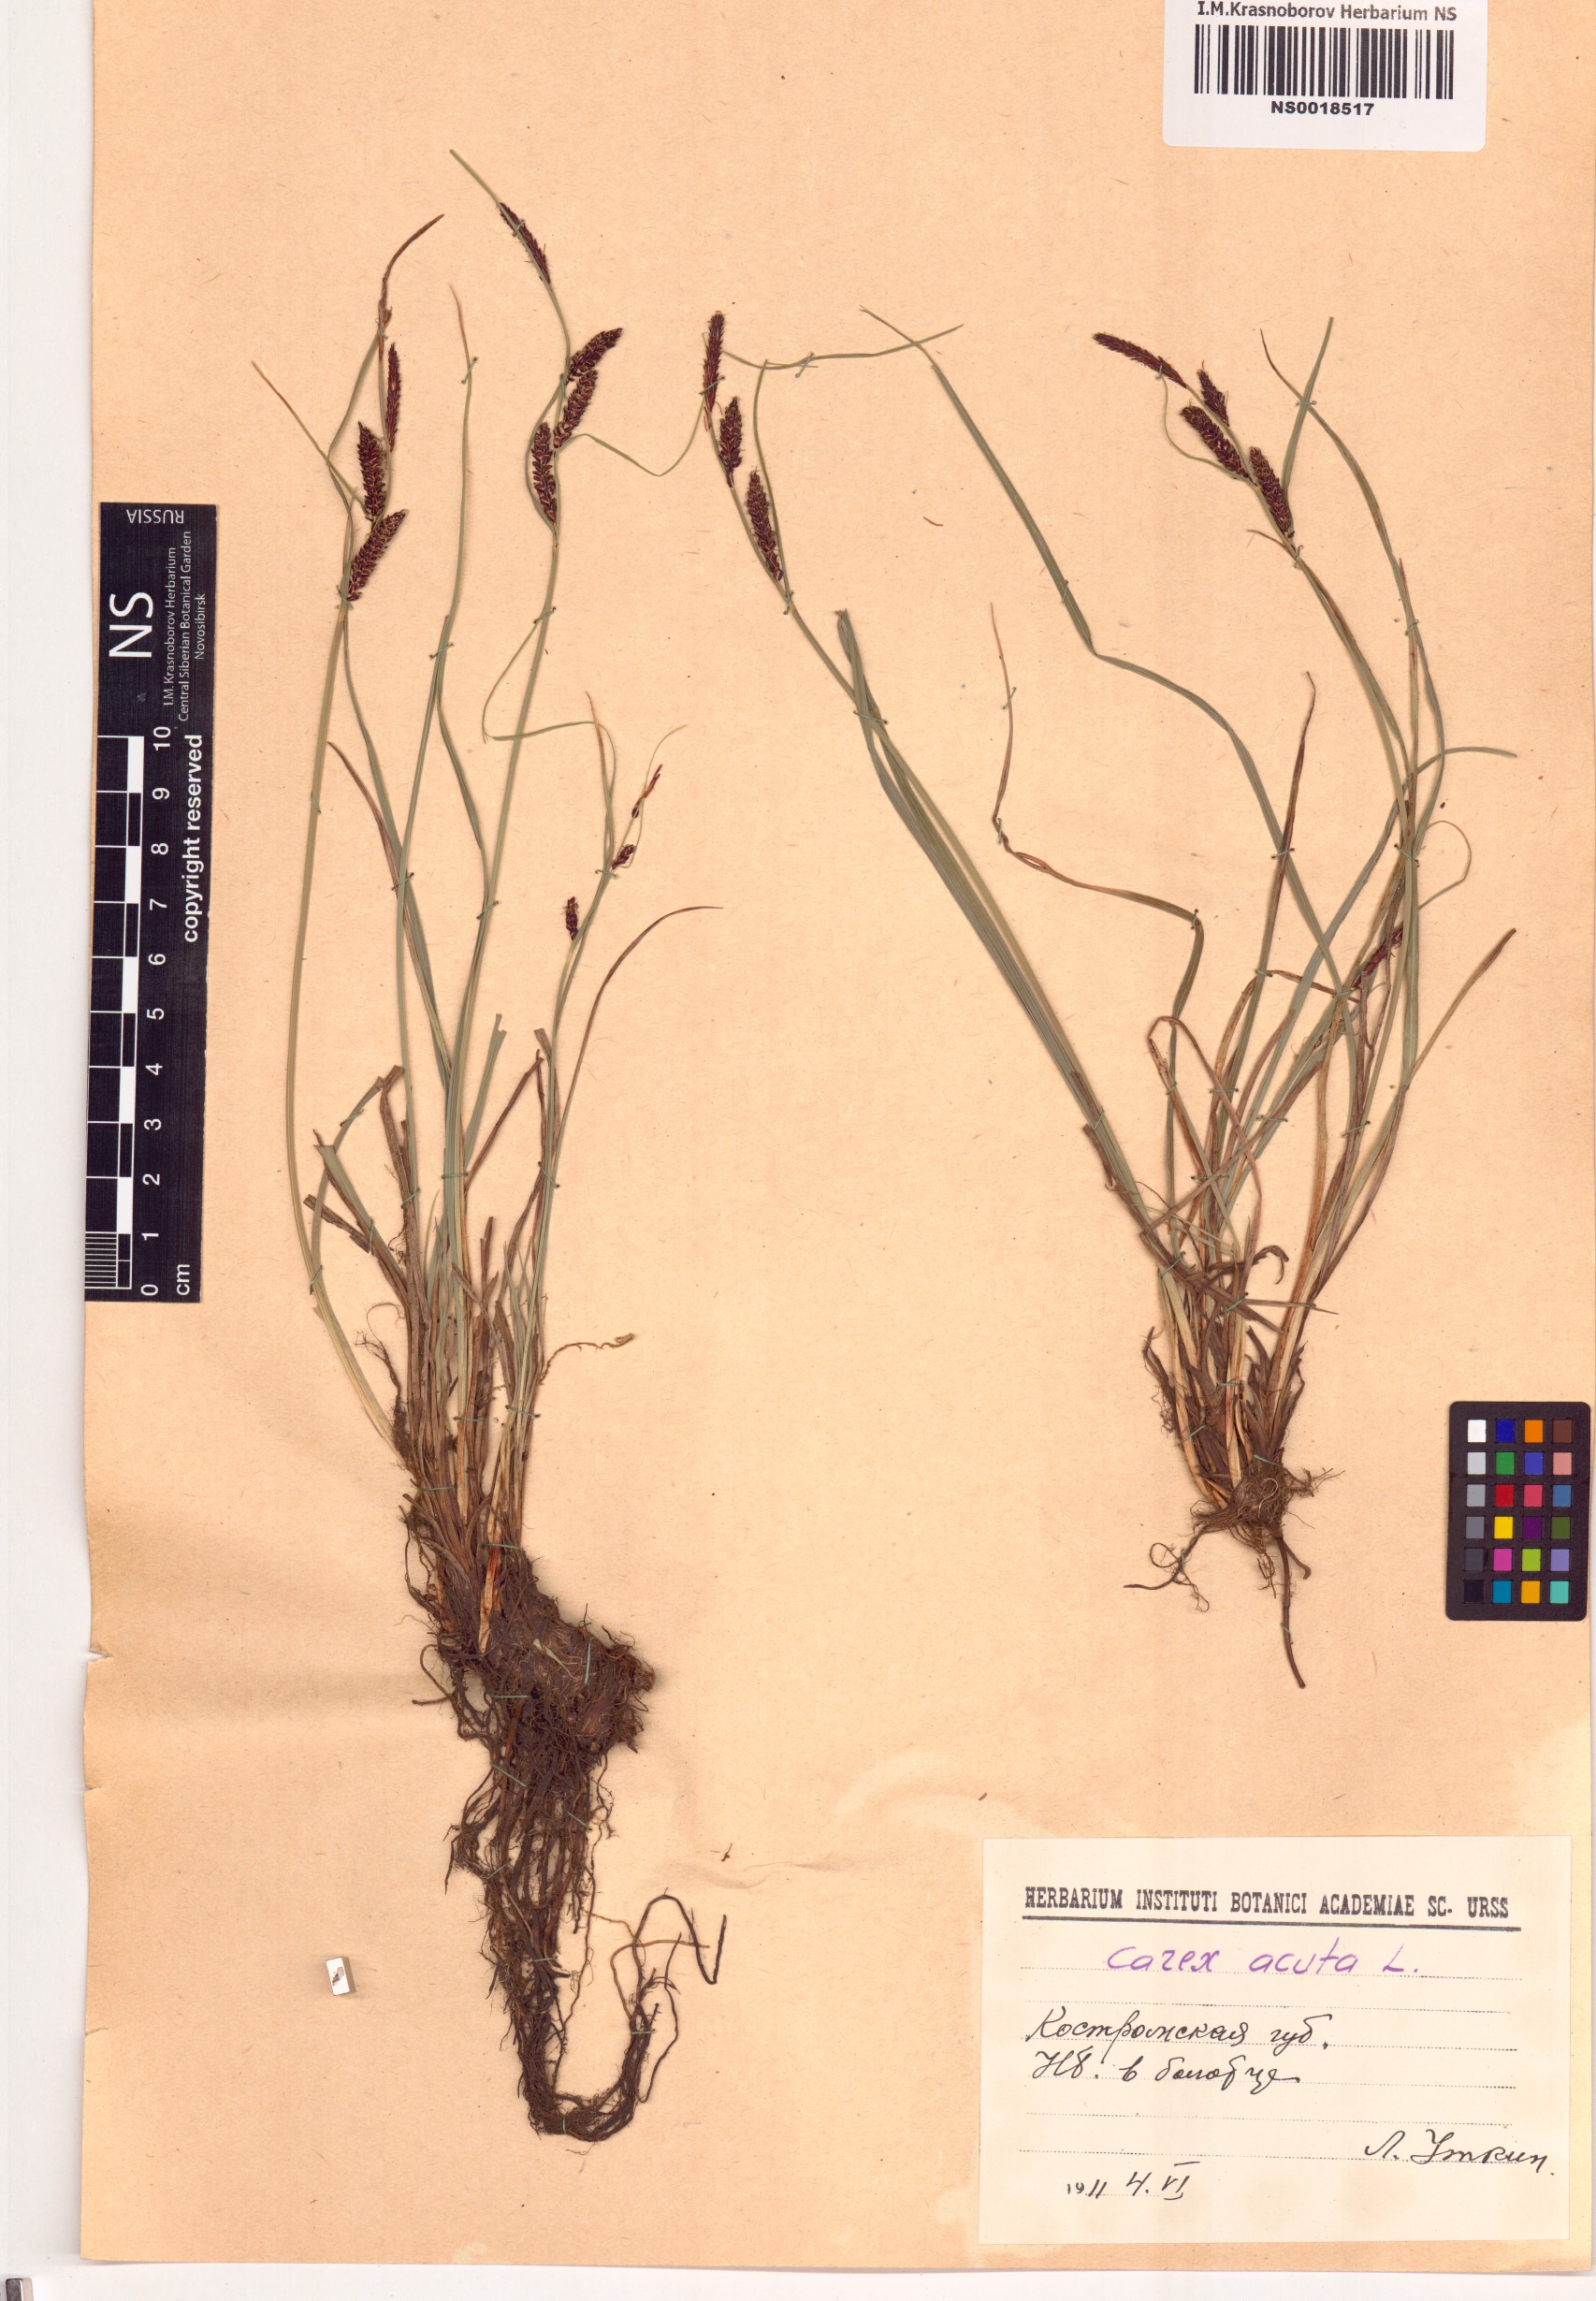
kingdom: Plantae
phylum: Tracheophyta
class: Liliopsida
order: Poales
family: Cyperaceae
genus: Carex
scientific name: Carex acuta
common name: Slender tufted-sedge
